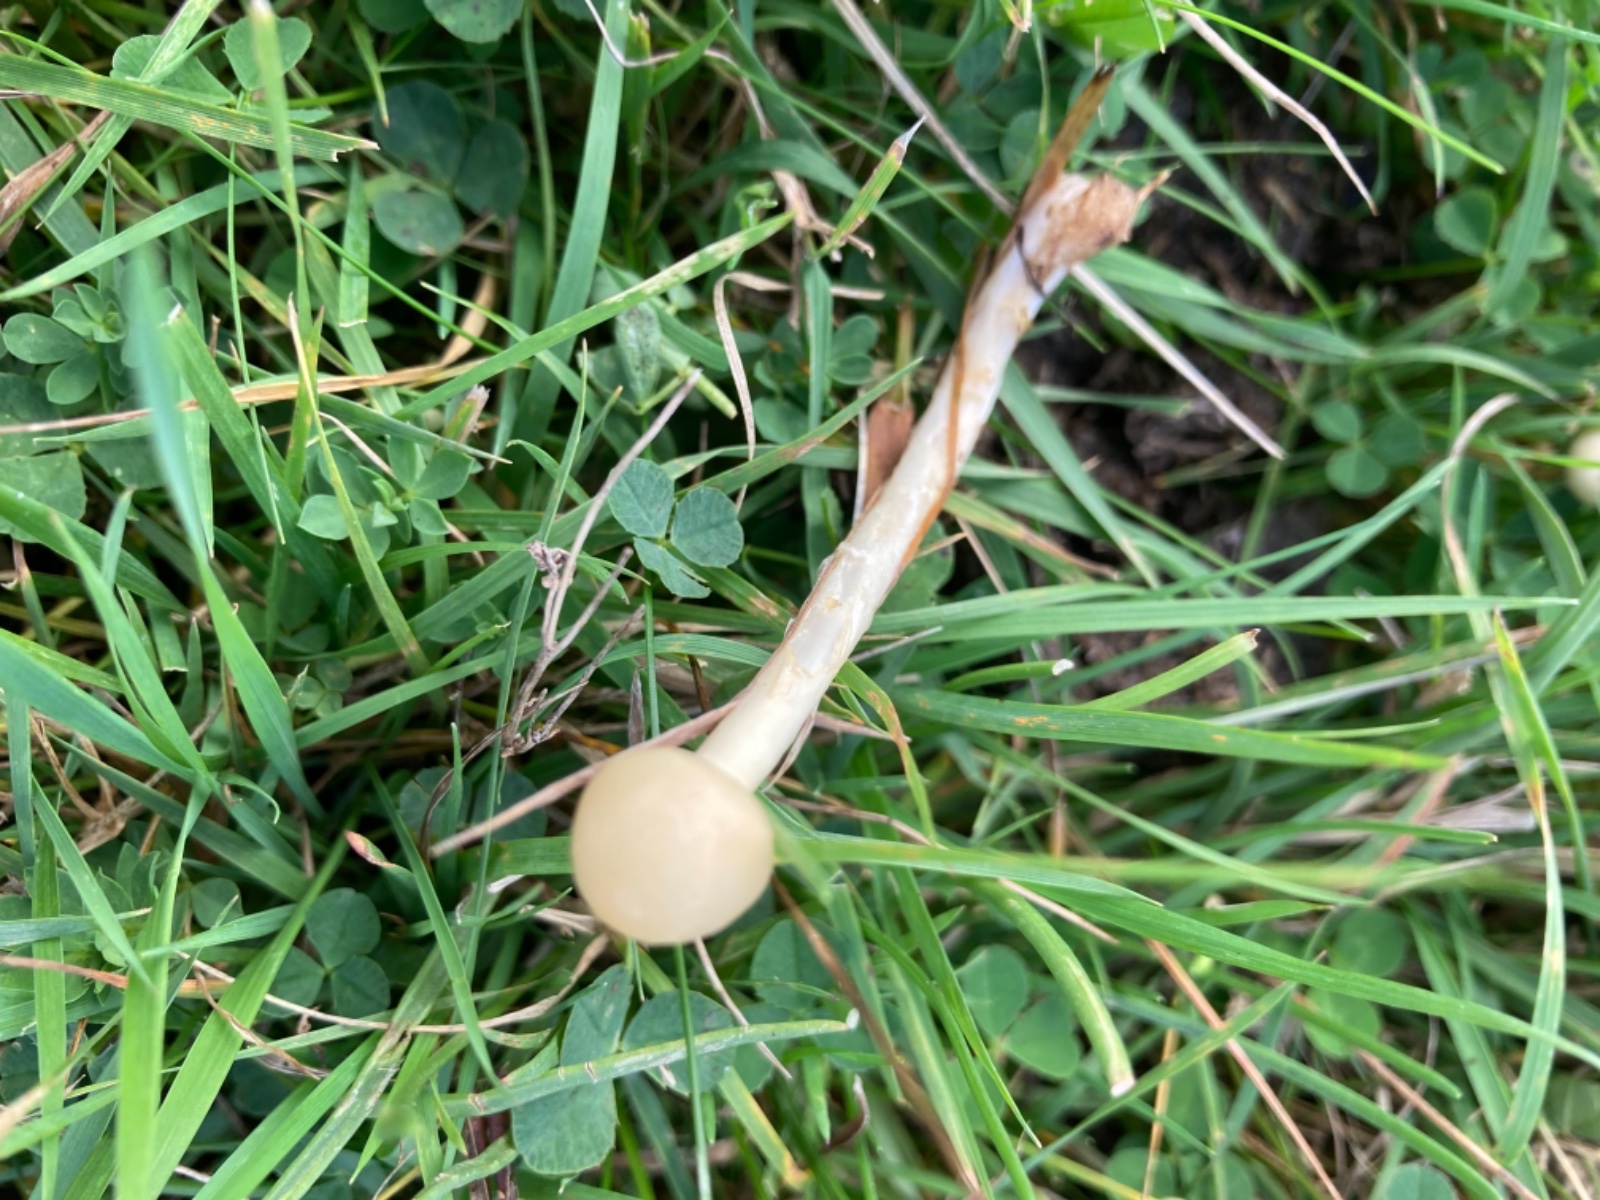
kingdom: Fungi
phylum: Basidiomycota
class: Agaricomycetes
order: Agaricales
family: Strophariaceae
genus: Protostropharia
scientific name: Protostropharia
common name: bredblad
